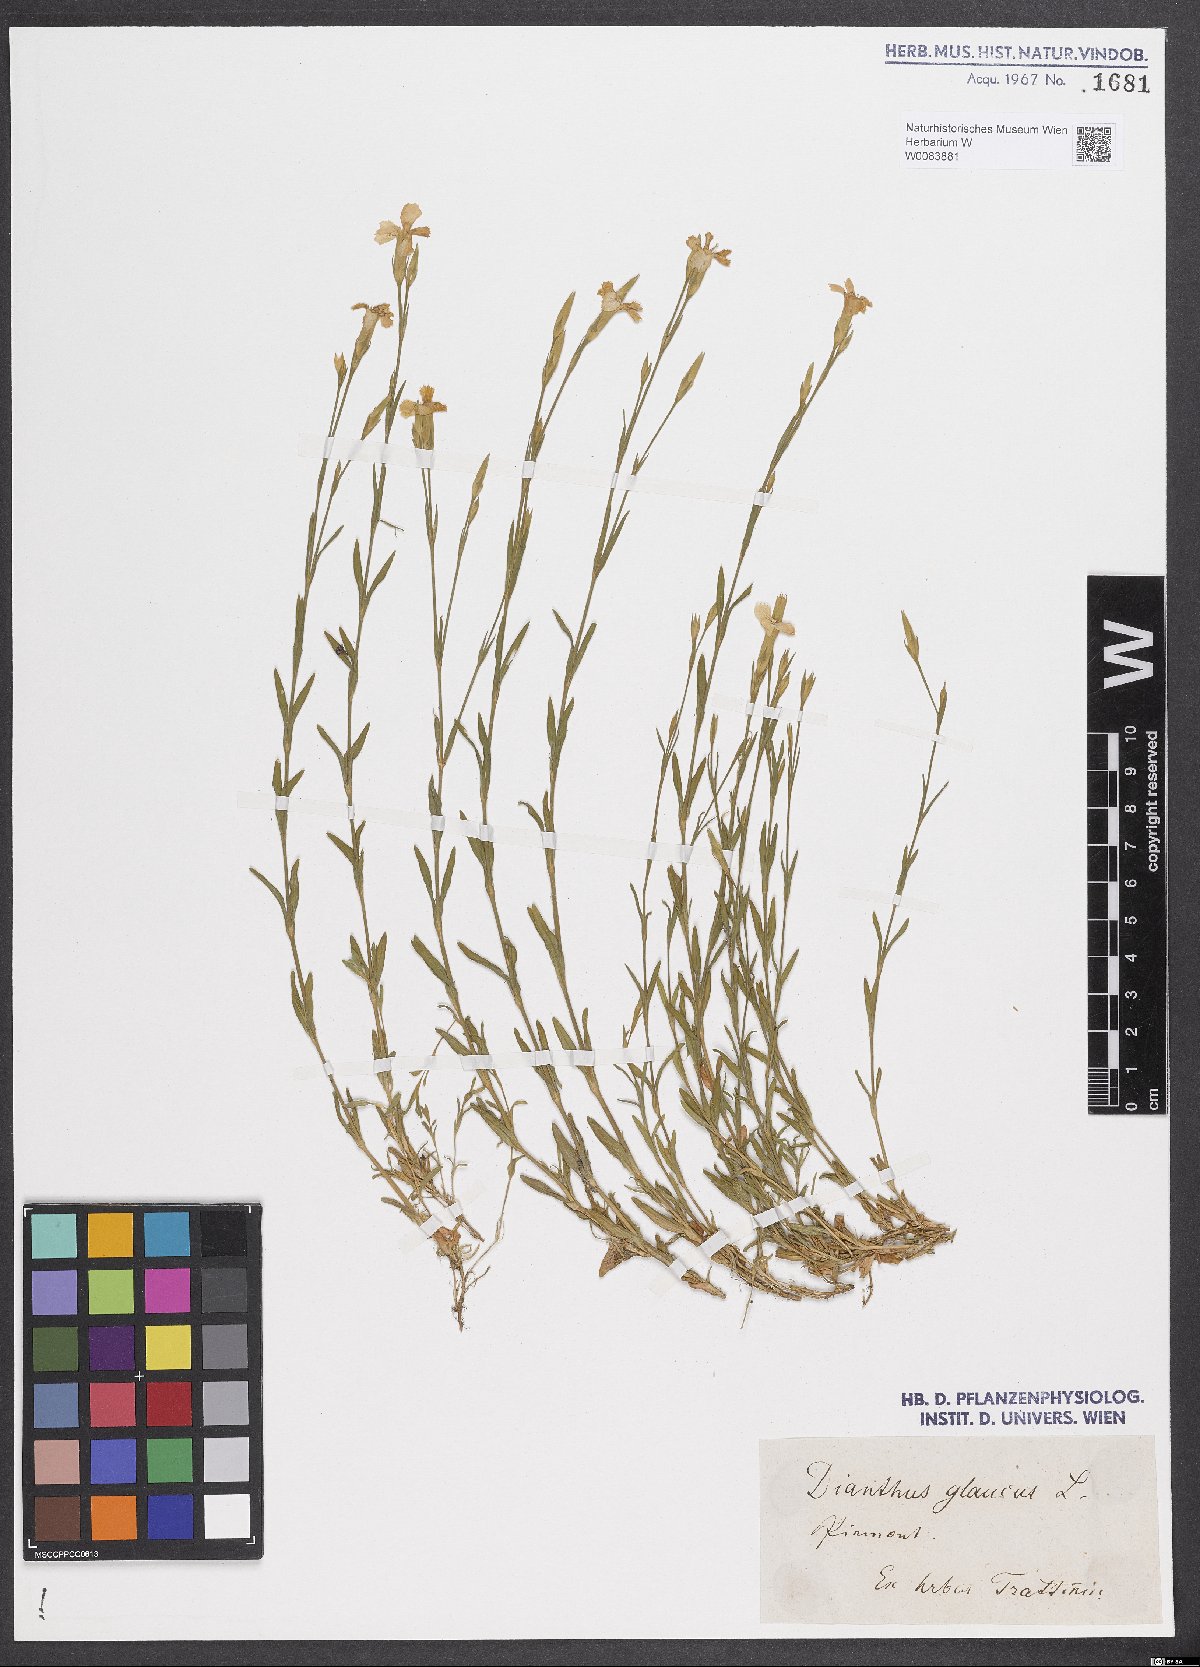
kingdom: Plantae
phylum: Tracheophyta
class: Magnoliopsida
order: Caryophyllales
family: Caryophyllaceae
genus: Dianthus
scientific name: Dianthus deltoides
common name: Maiden pink
